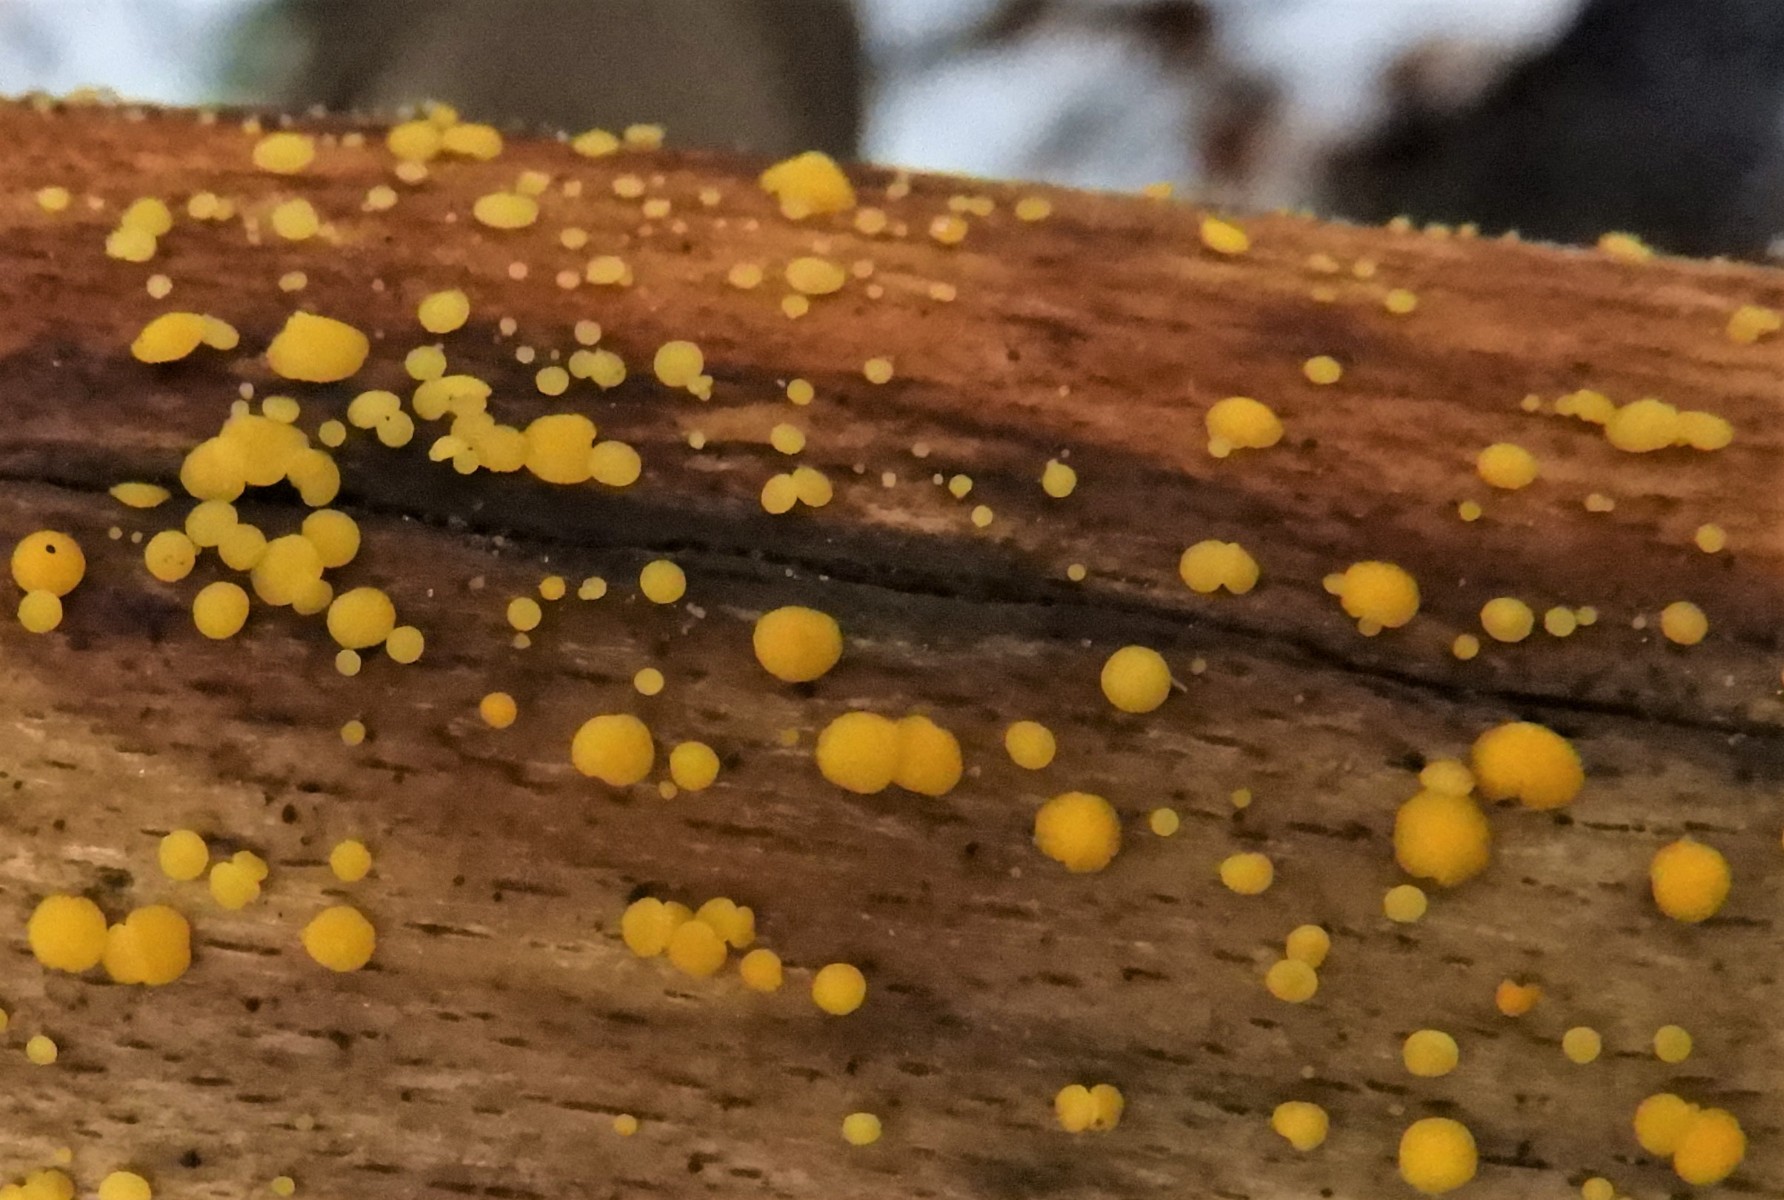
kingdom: Fungi
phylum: Ascomycota
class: Leotiomycetes
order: Helotiales
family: Pezizellaceae
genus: Calycina
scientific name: Calycina citrina
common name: almindelig gulskive
